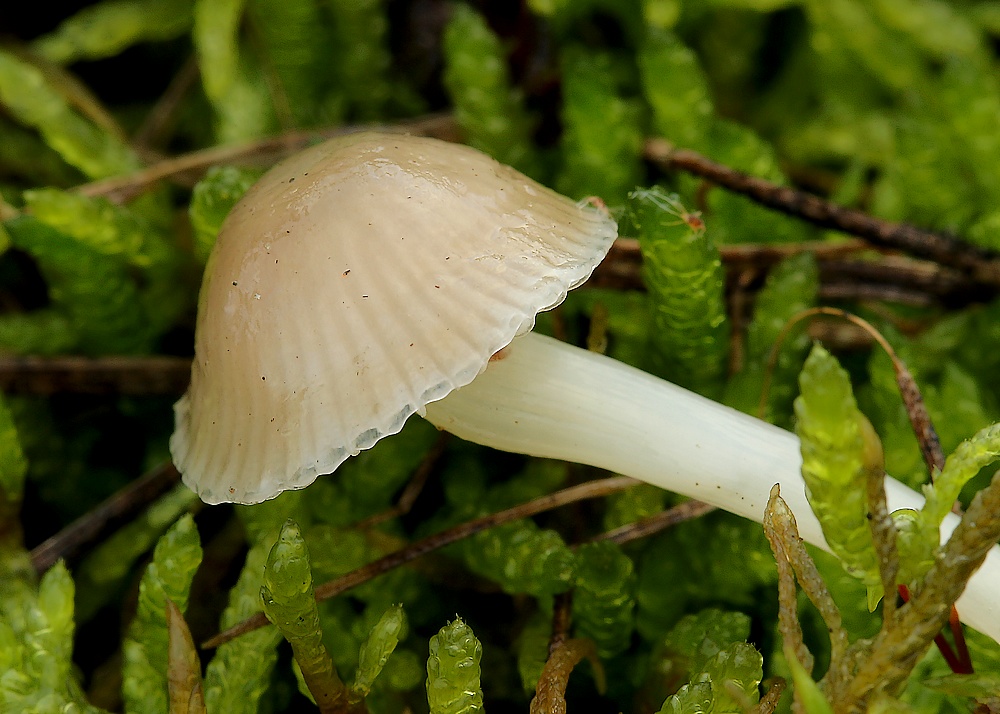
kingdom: Fungi
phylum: Basidiomycota
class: Agaricomycetes
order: Agaricales
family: Mycenaceae
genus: Mycena
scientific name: Mycena epipterygia
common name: gulstokket huesvamp
